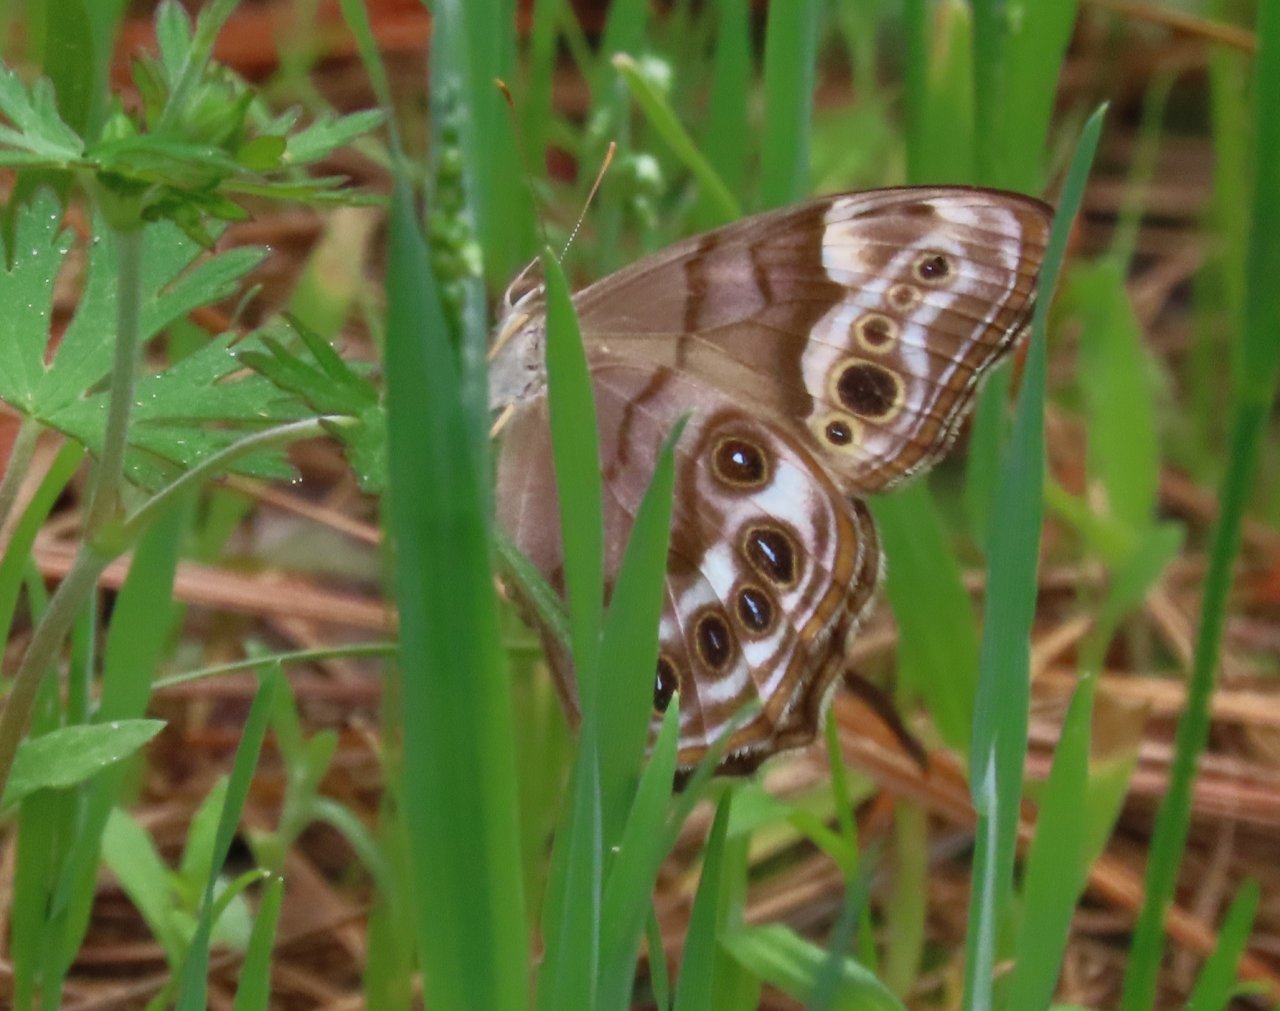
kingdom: Animalia
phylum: Arthropoda
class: Insecta
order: Lepidoptera
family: Nymphalidae
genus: Lethe
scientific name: Lethe creola
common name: Creole Pearly-Eye
